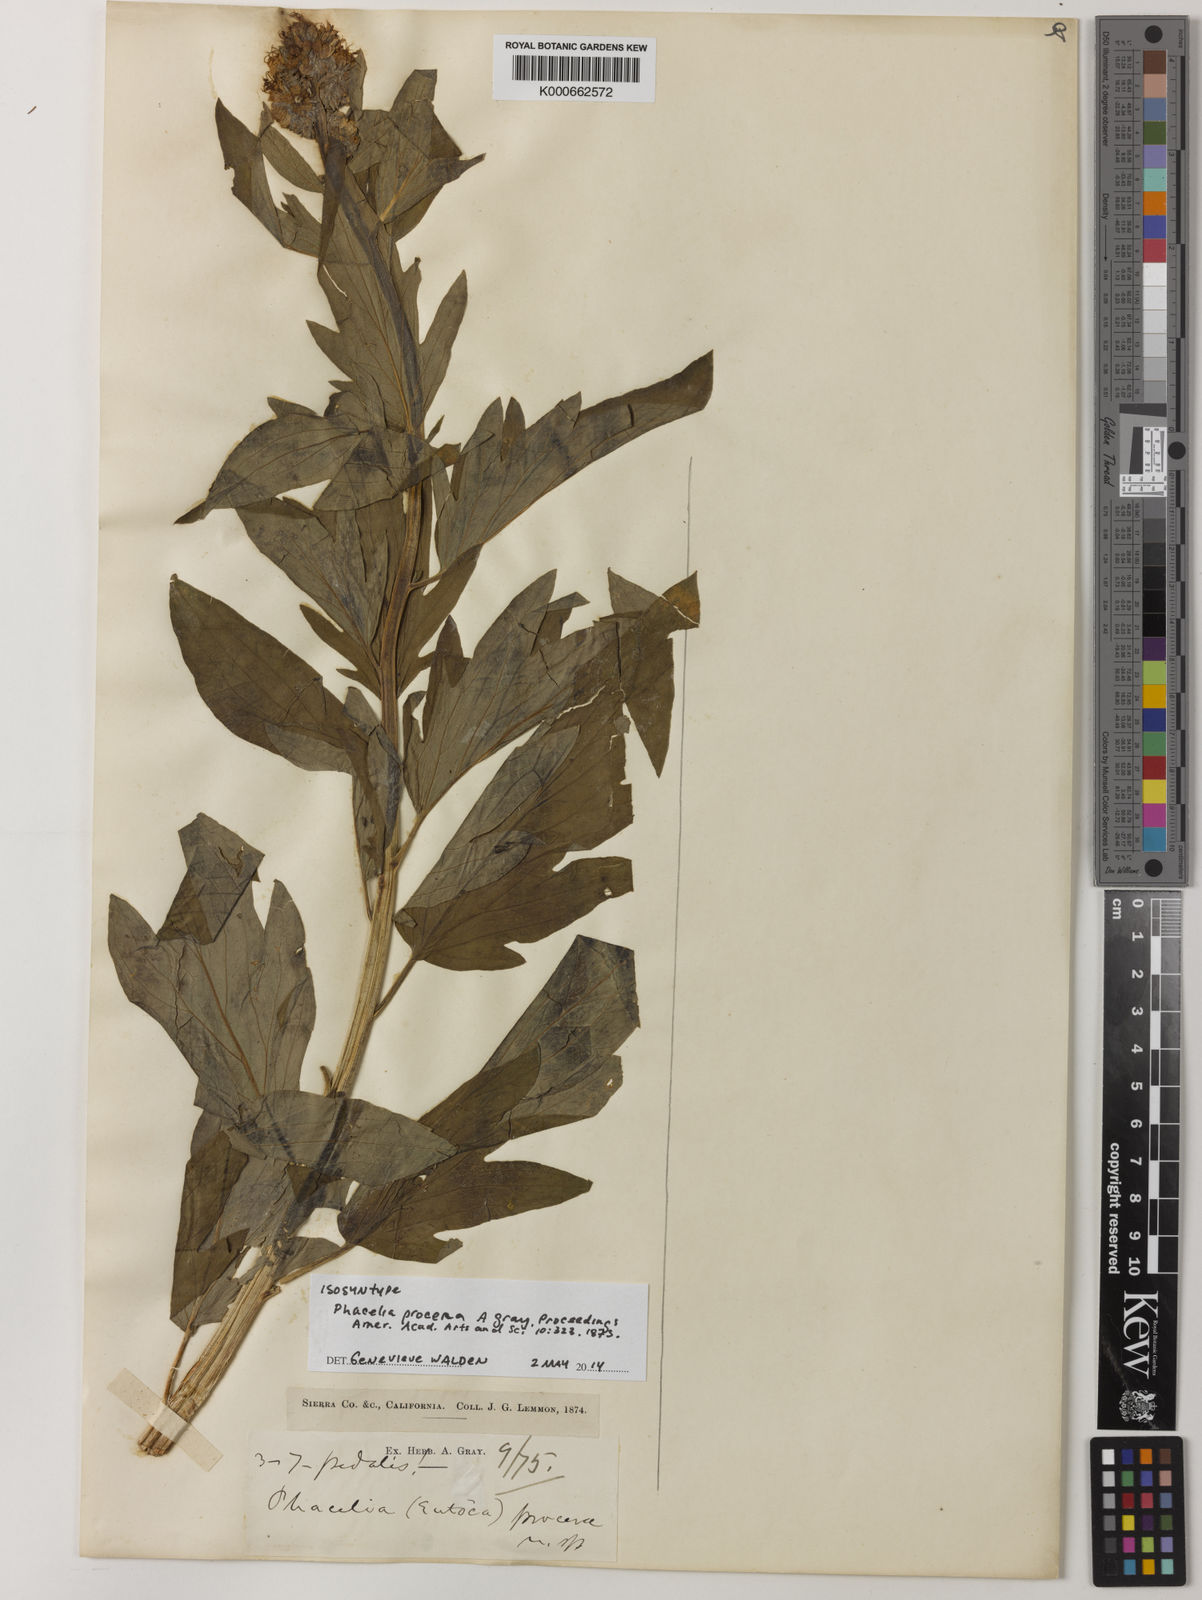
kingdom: Plantae
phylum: Tracheophyta
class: Magnoliopsida
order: Boraginales
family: Hydrophyllaceae
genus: Phacelia
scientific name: Phacelia procera
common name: Tall phacelia
